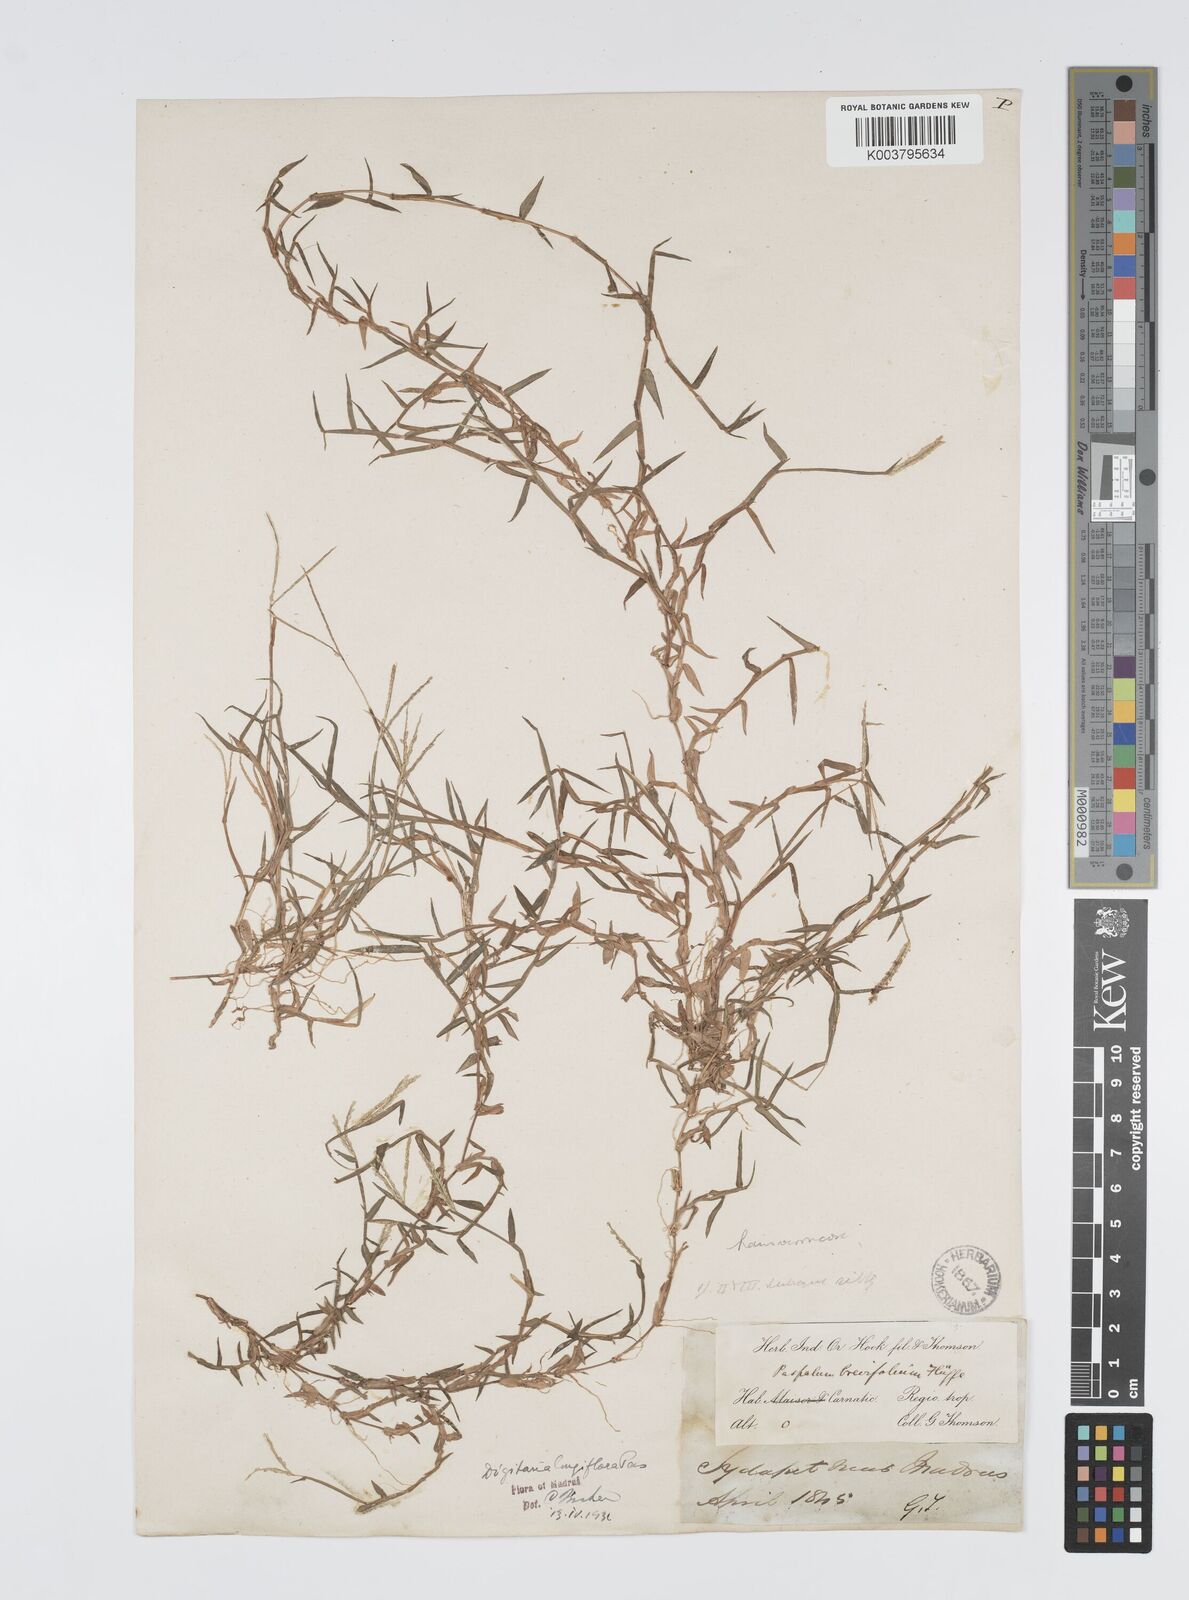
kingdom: Plantae
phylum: Tracheophyta
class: Liliopsida
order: Poales
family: Poaceae
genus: Digitaria
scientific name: Digitaria longiflora
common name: Wire crabgrass
